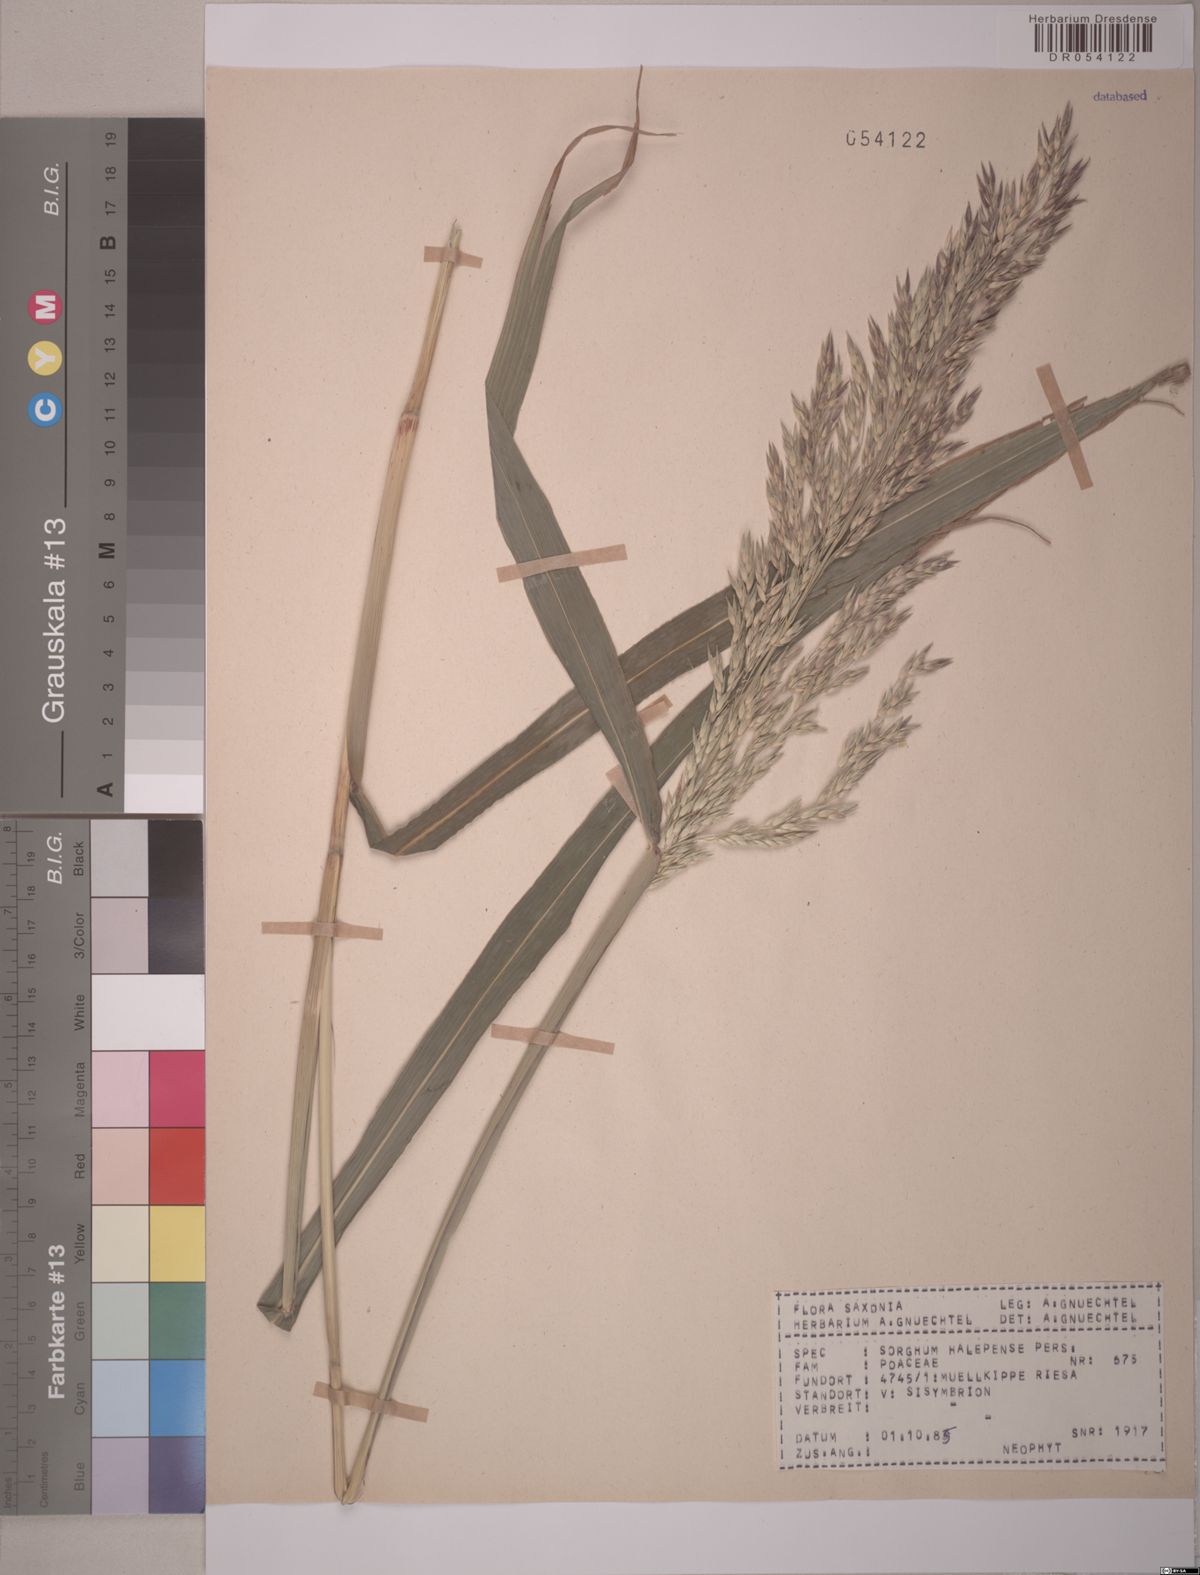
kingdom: Plantae
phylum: Tracheophyta
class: Liliopsida
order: Poales
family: Poaceae
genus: Sorghum
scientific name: Sorghum halepense
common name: Johnson-grass
